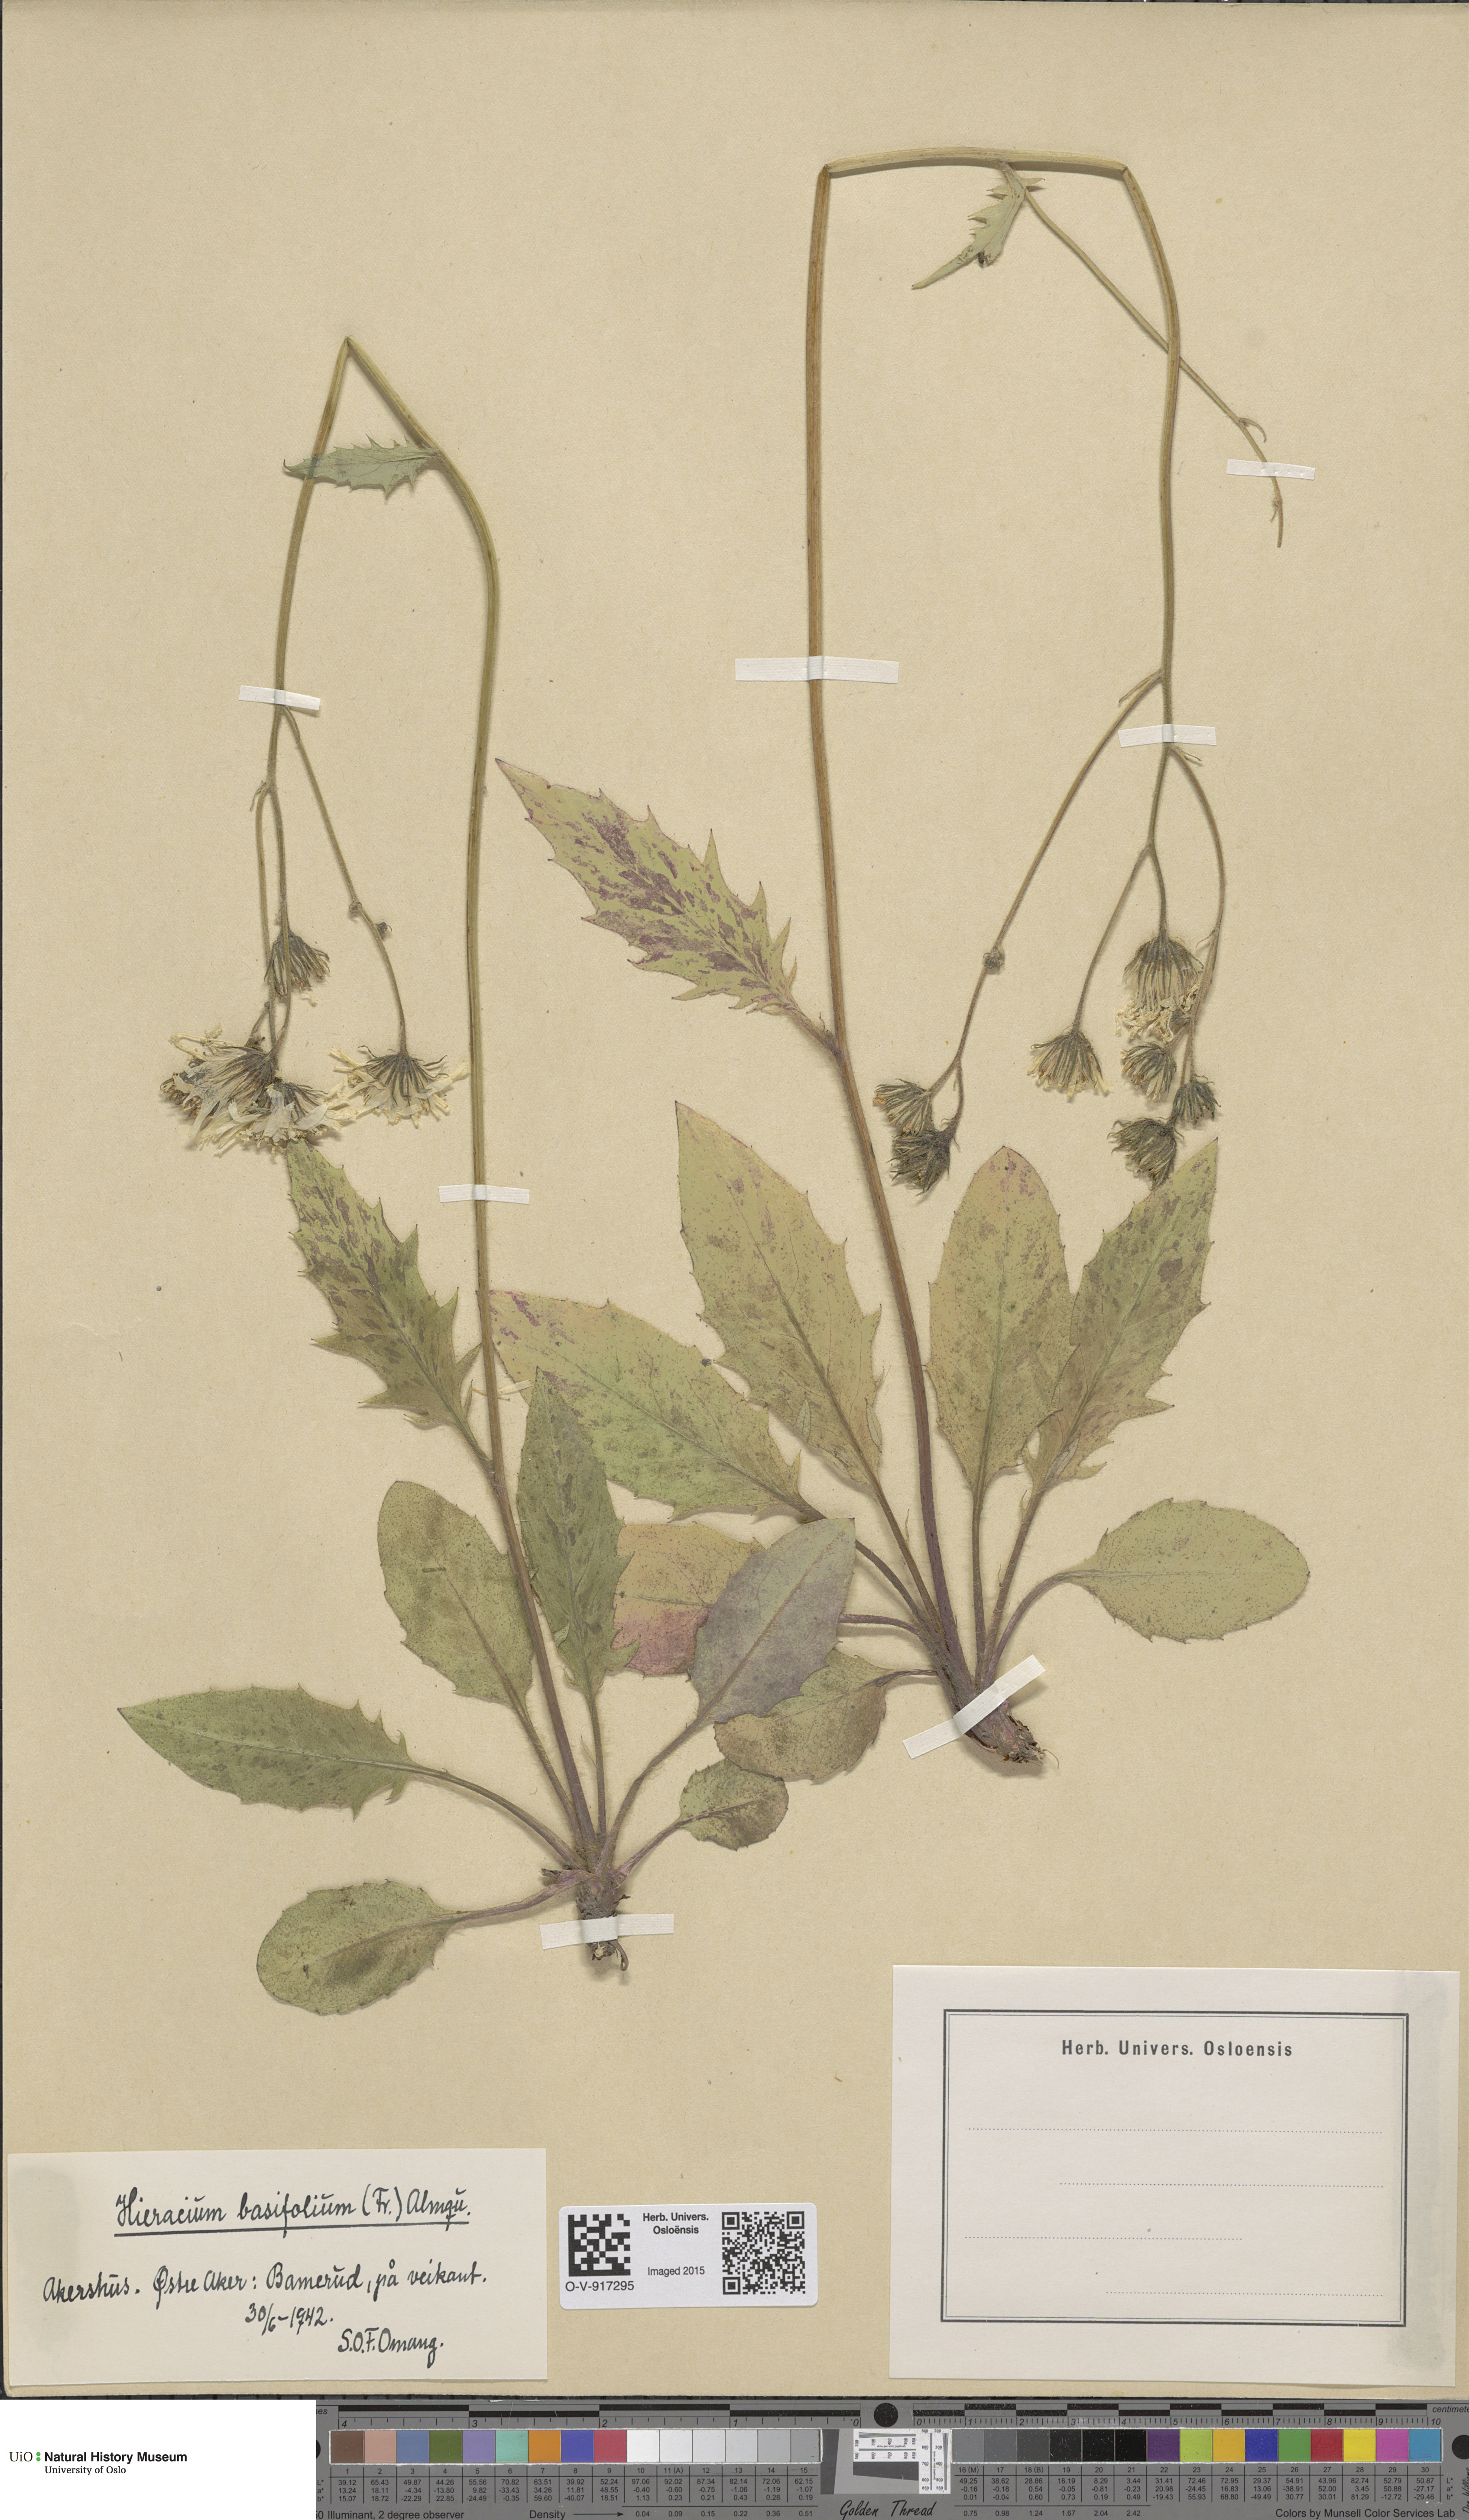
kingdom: Plantae
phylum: Tracheophyta
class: Magnoliopsida
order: Asterales
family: Asteraceae
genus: Hieracium
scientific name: Hieracium basifolium
